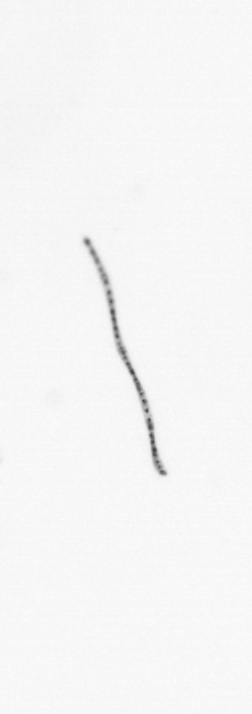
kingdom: Chromista
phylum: Ochrophyta
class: Bacillariophyceae
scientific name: Bacillariophyceae
